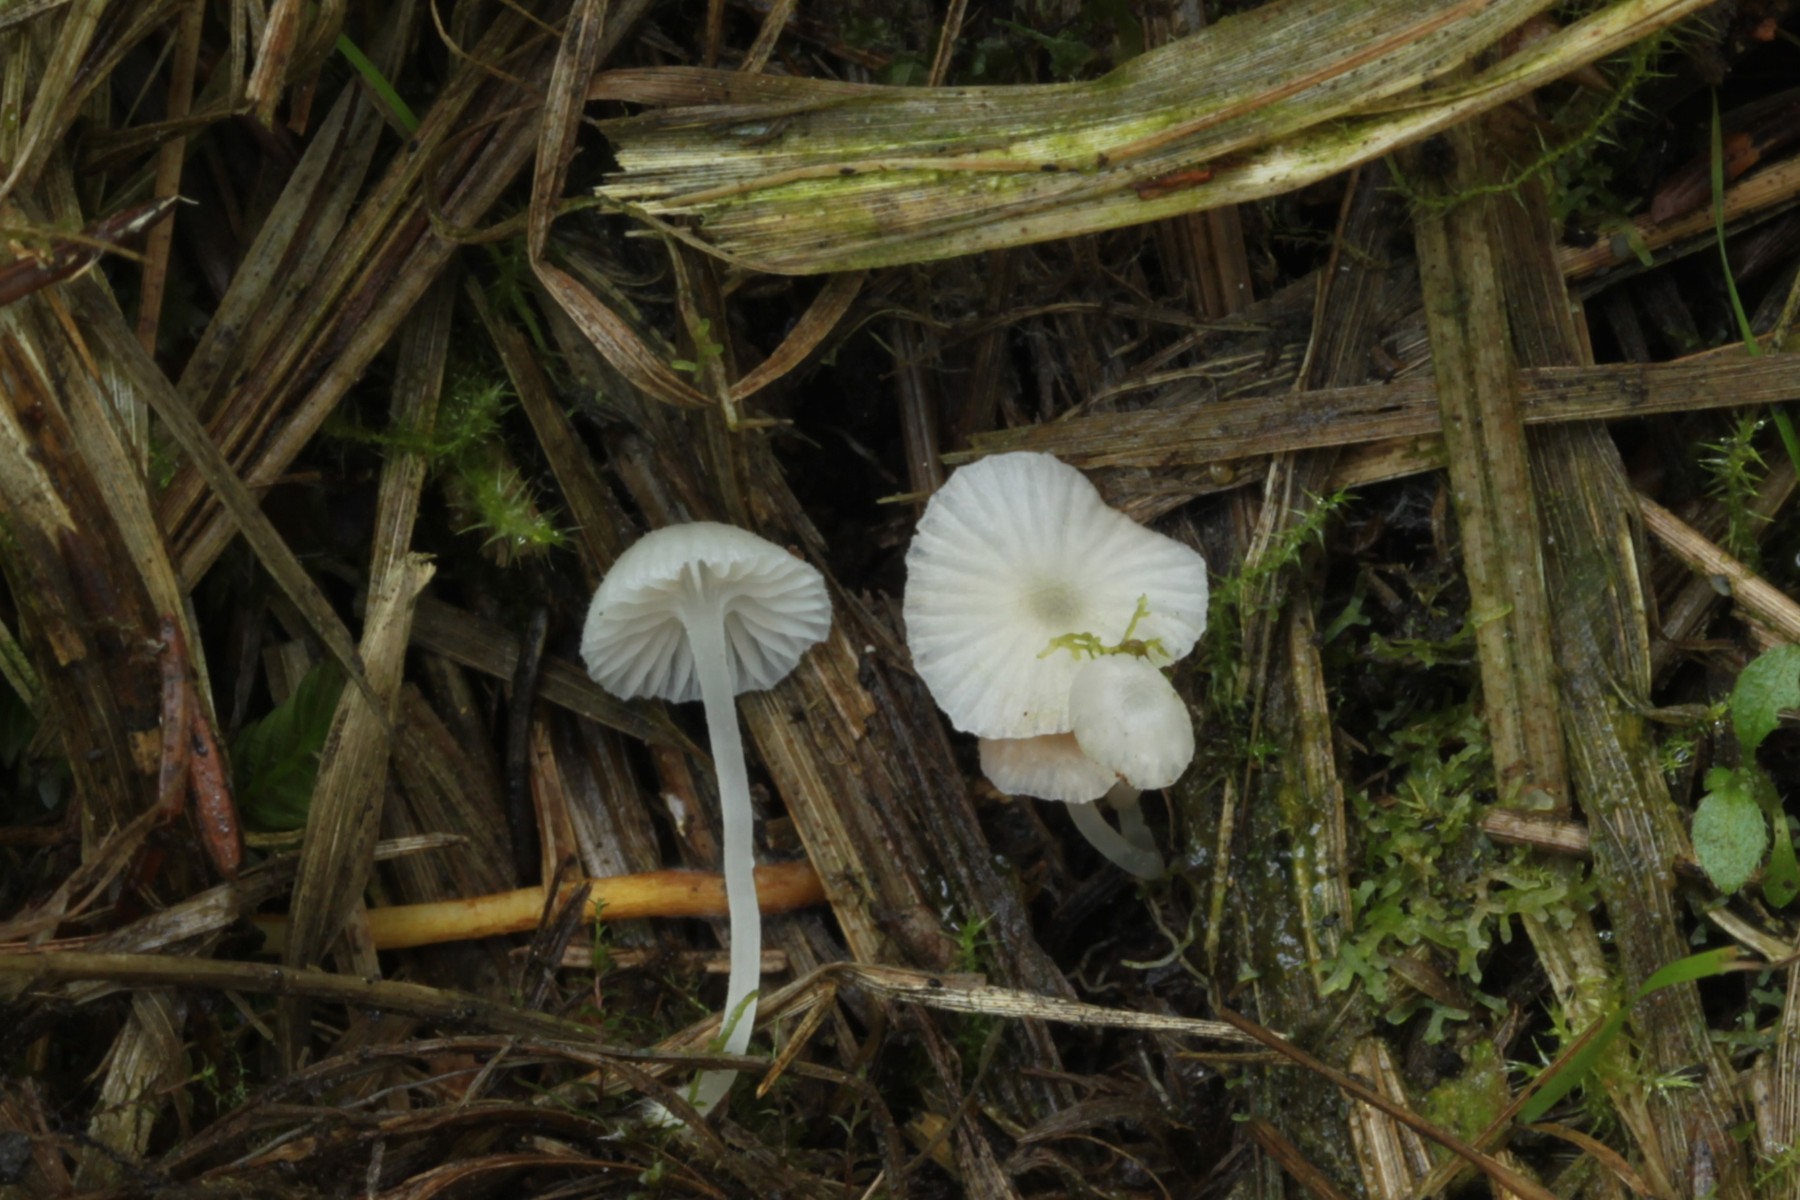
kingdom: Fungi
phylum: Basidiomycota
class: Agaricomycetes
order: Agaricales
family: Entolomataceae
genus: Entoloma
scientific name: Entoloma
